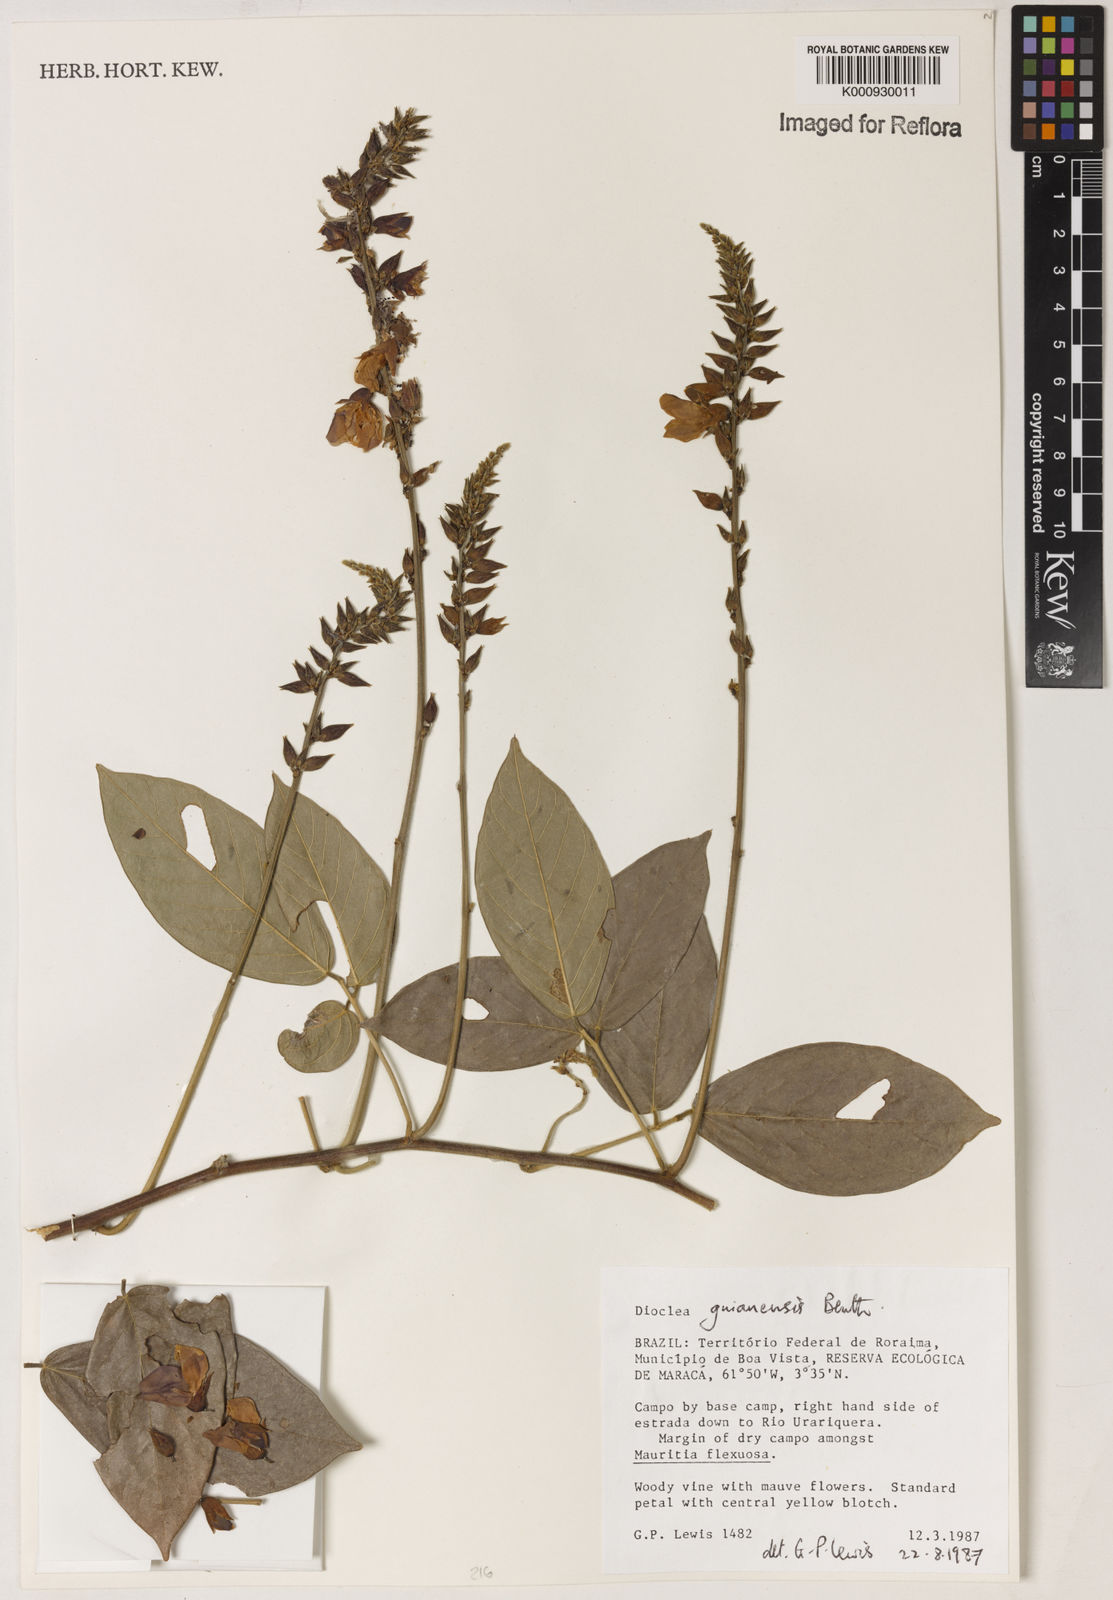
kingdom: Plantae
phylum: Tracheophyta
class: Magnoliopsida
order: Fabales
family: Fabaceae
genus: Dioclea
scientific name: Dioclea guianensis
